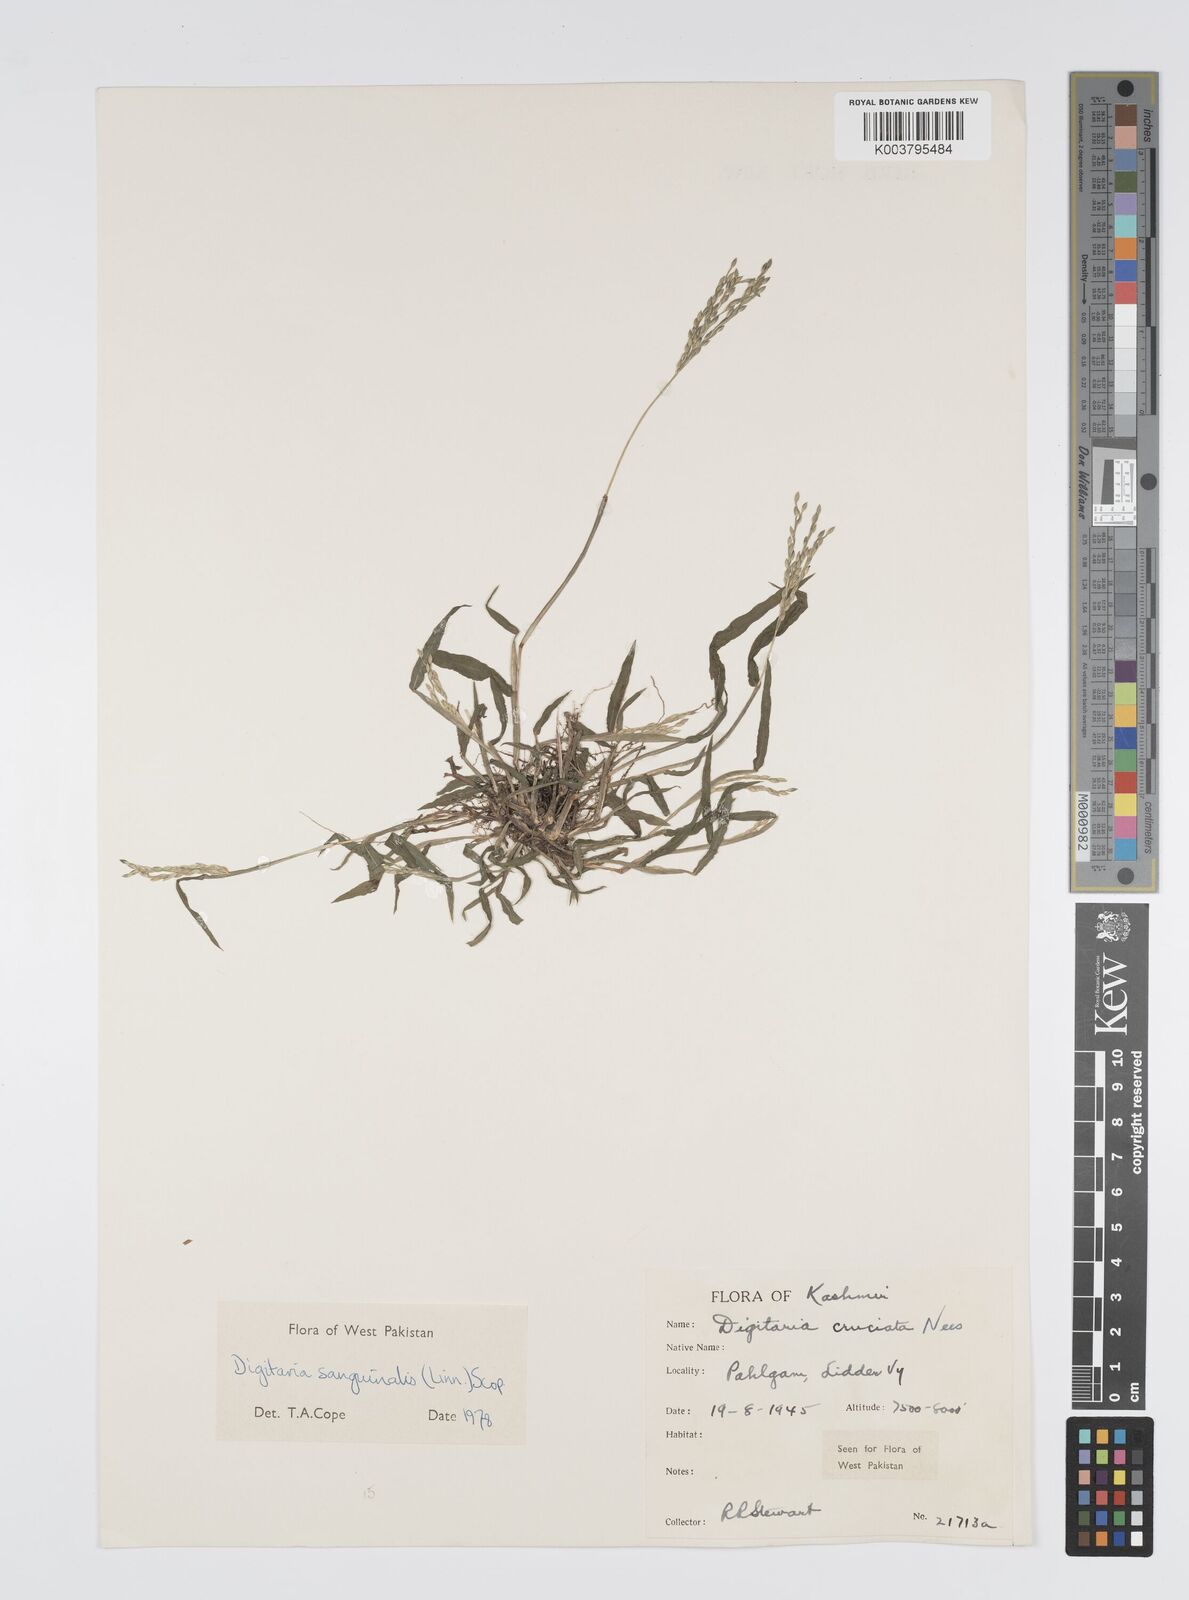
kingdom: Plantae
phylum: Tracheophyta
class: Liliopsida
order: Poales
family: Poaceae
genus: Digitaria
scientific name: Digitaria sanguinalis
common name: Hairy crabgrass
